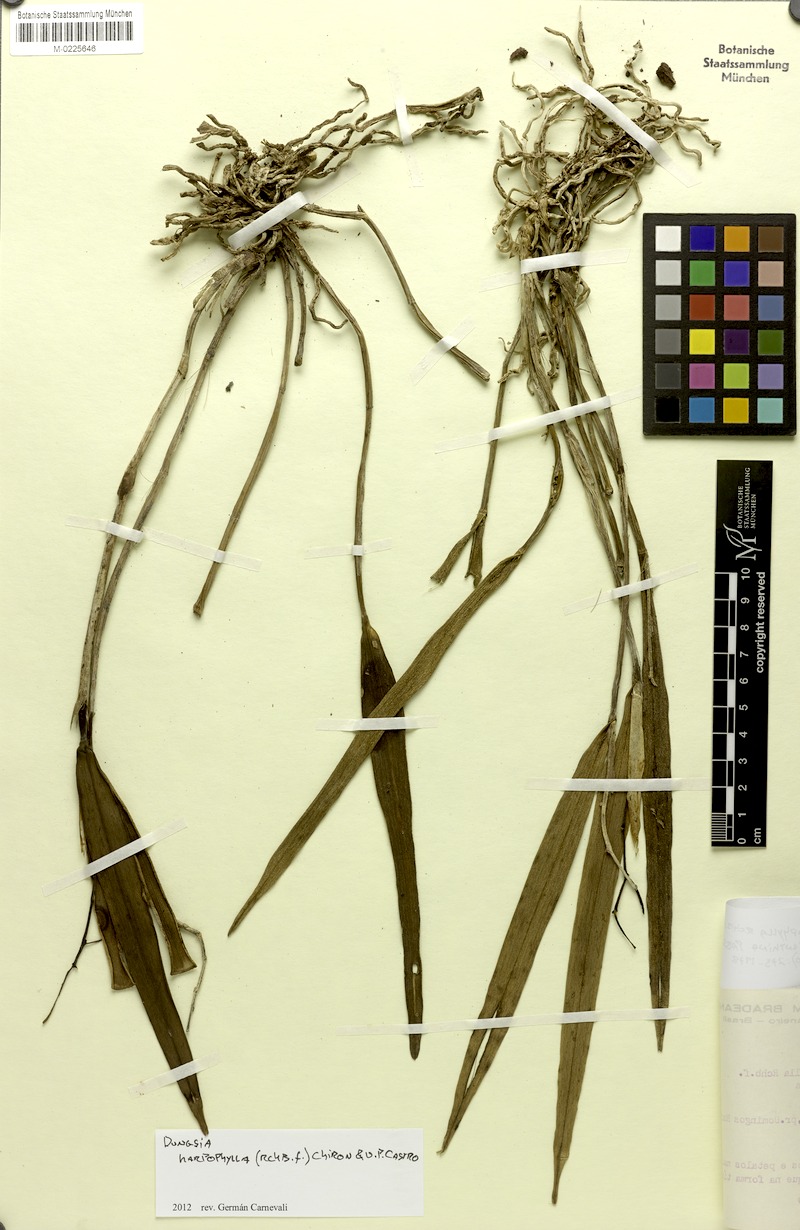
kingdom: Plantae
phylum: Tracheophyta
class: Liliopsida
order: Asparagales
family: Orchidaceae
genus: Cattleya
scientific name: Cattleya harpophylla
